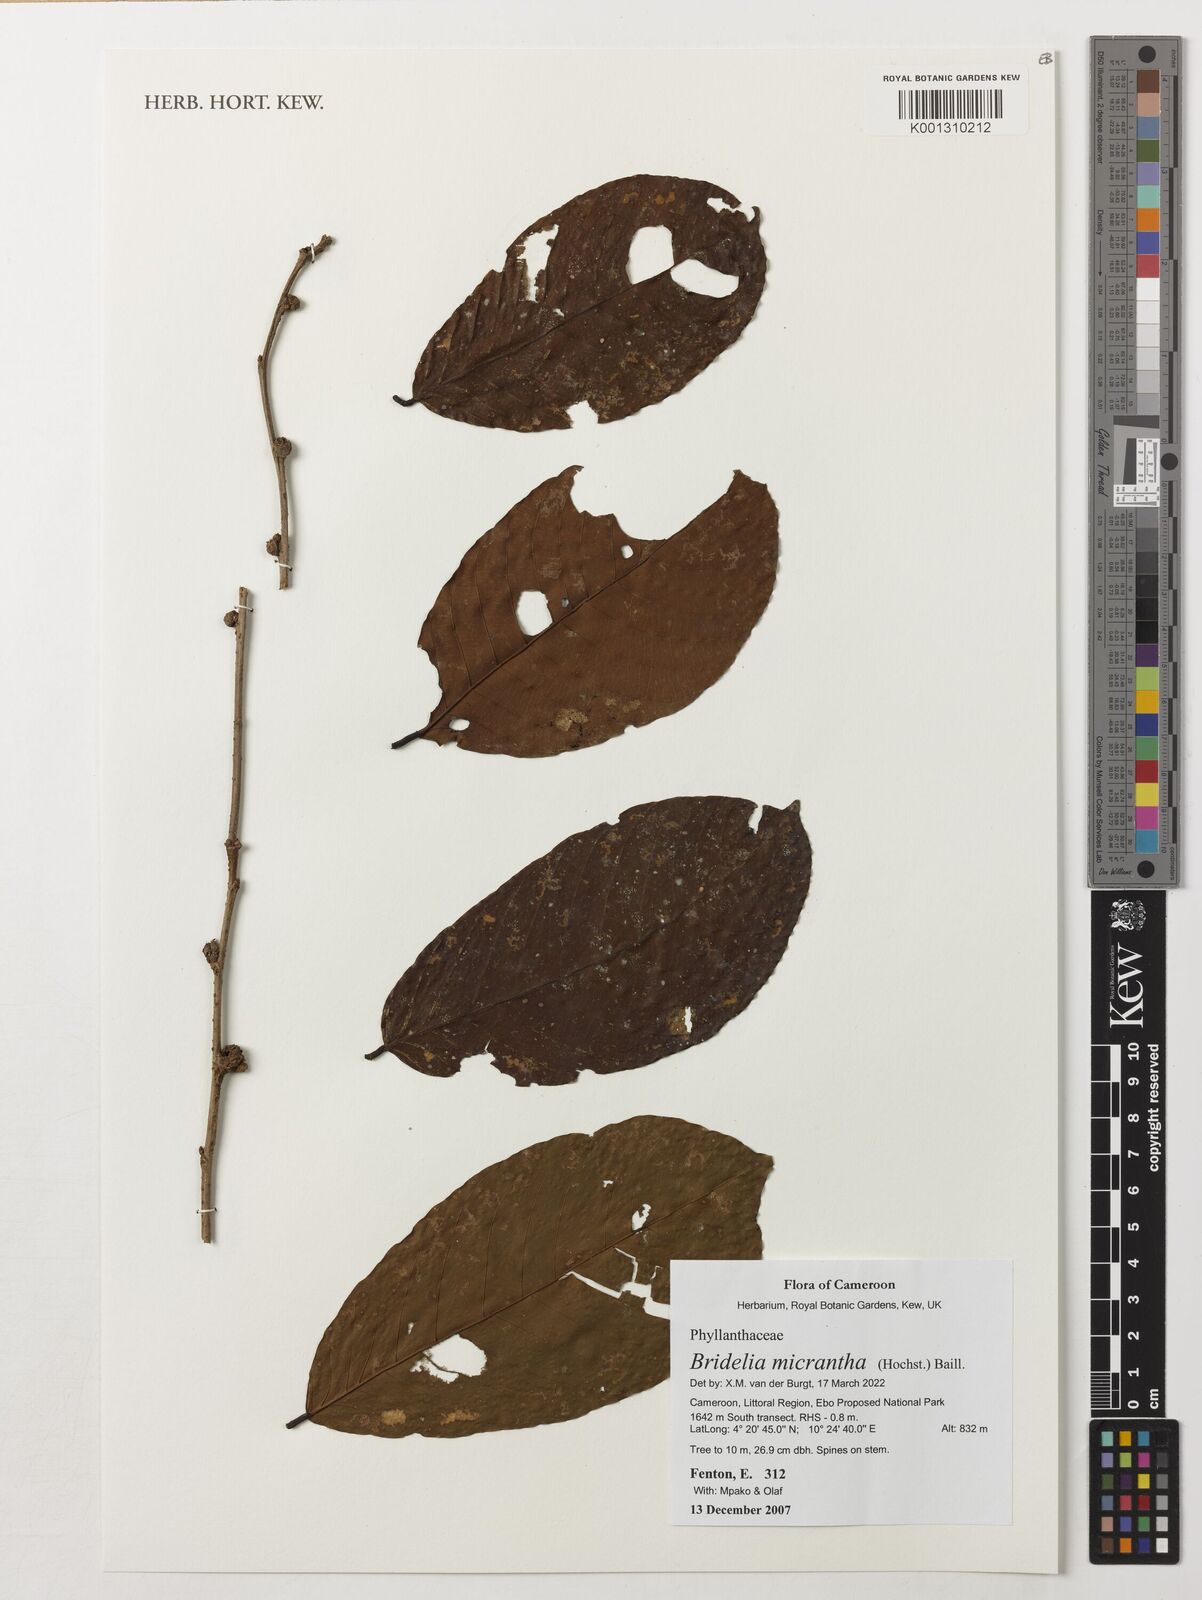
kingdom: Plantae
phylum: Tracheophyta
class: Magnoliopsida
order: Malpighiales
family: Phyllanthaceae
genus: Bridelia
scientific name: Bridelia micrantha
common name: Bridelia
